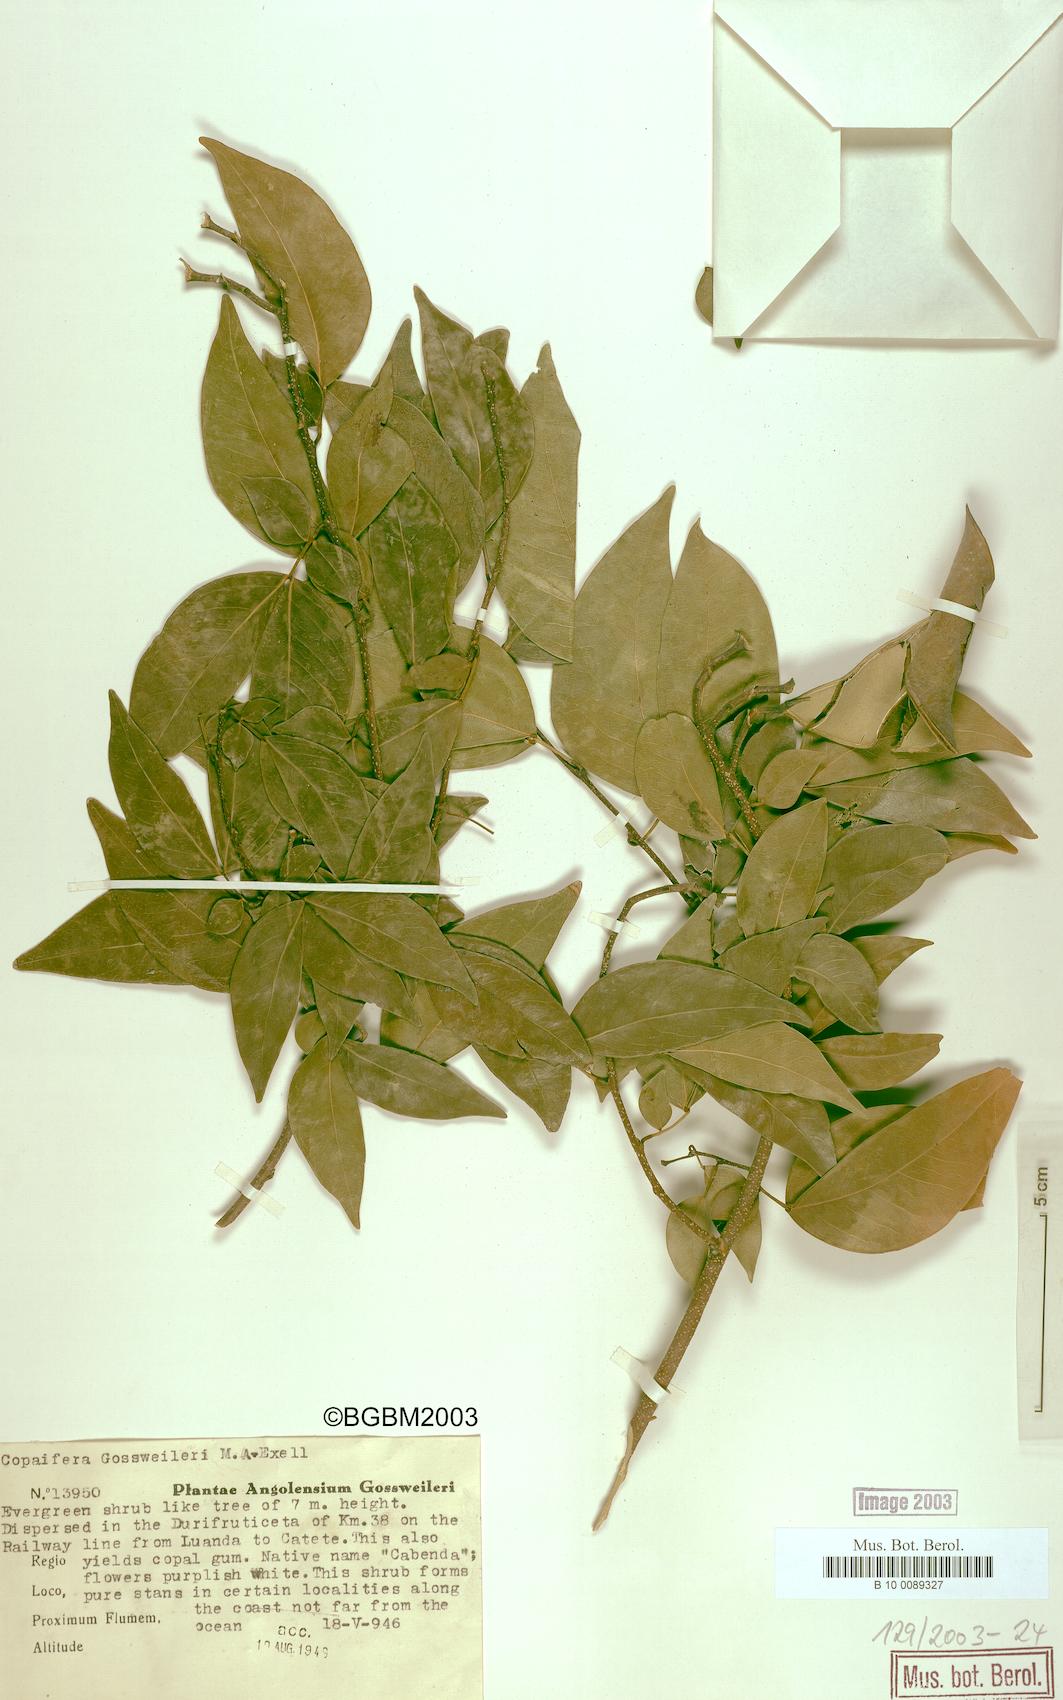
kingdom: Plantae
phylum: Tracheophyta
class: Magnoliopsida
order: Fabales
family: Fabaceae
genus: Guibourtia
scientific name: Guibourtia carrissoana
